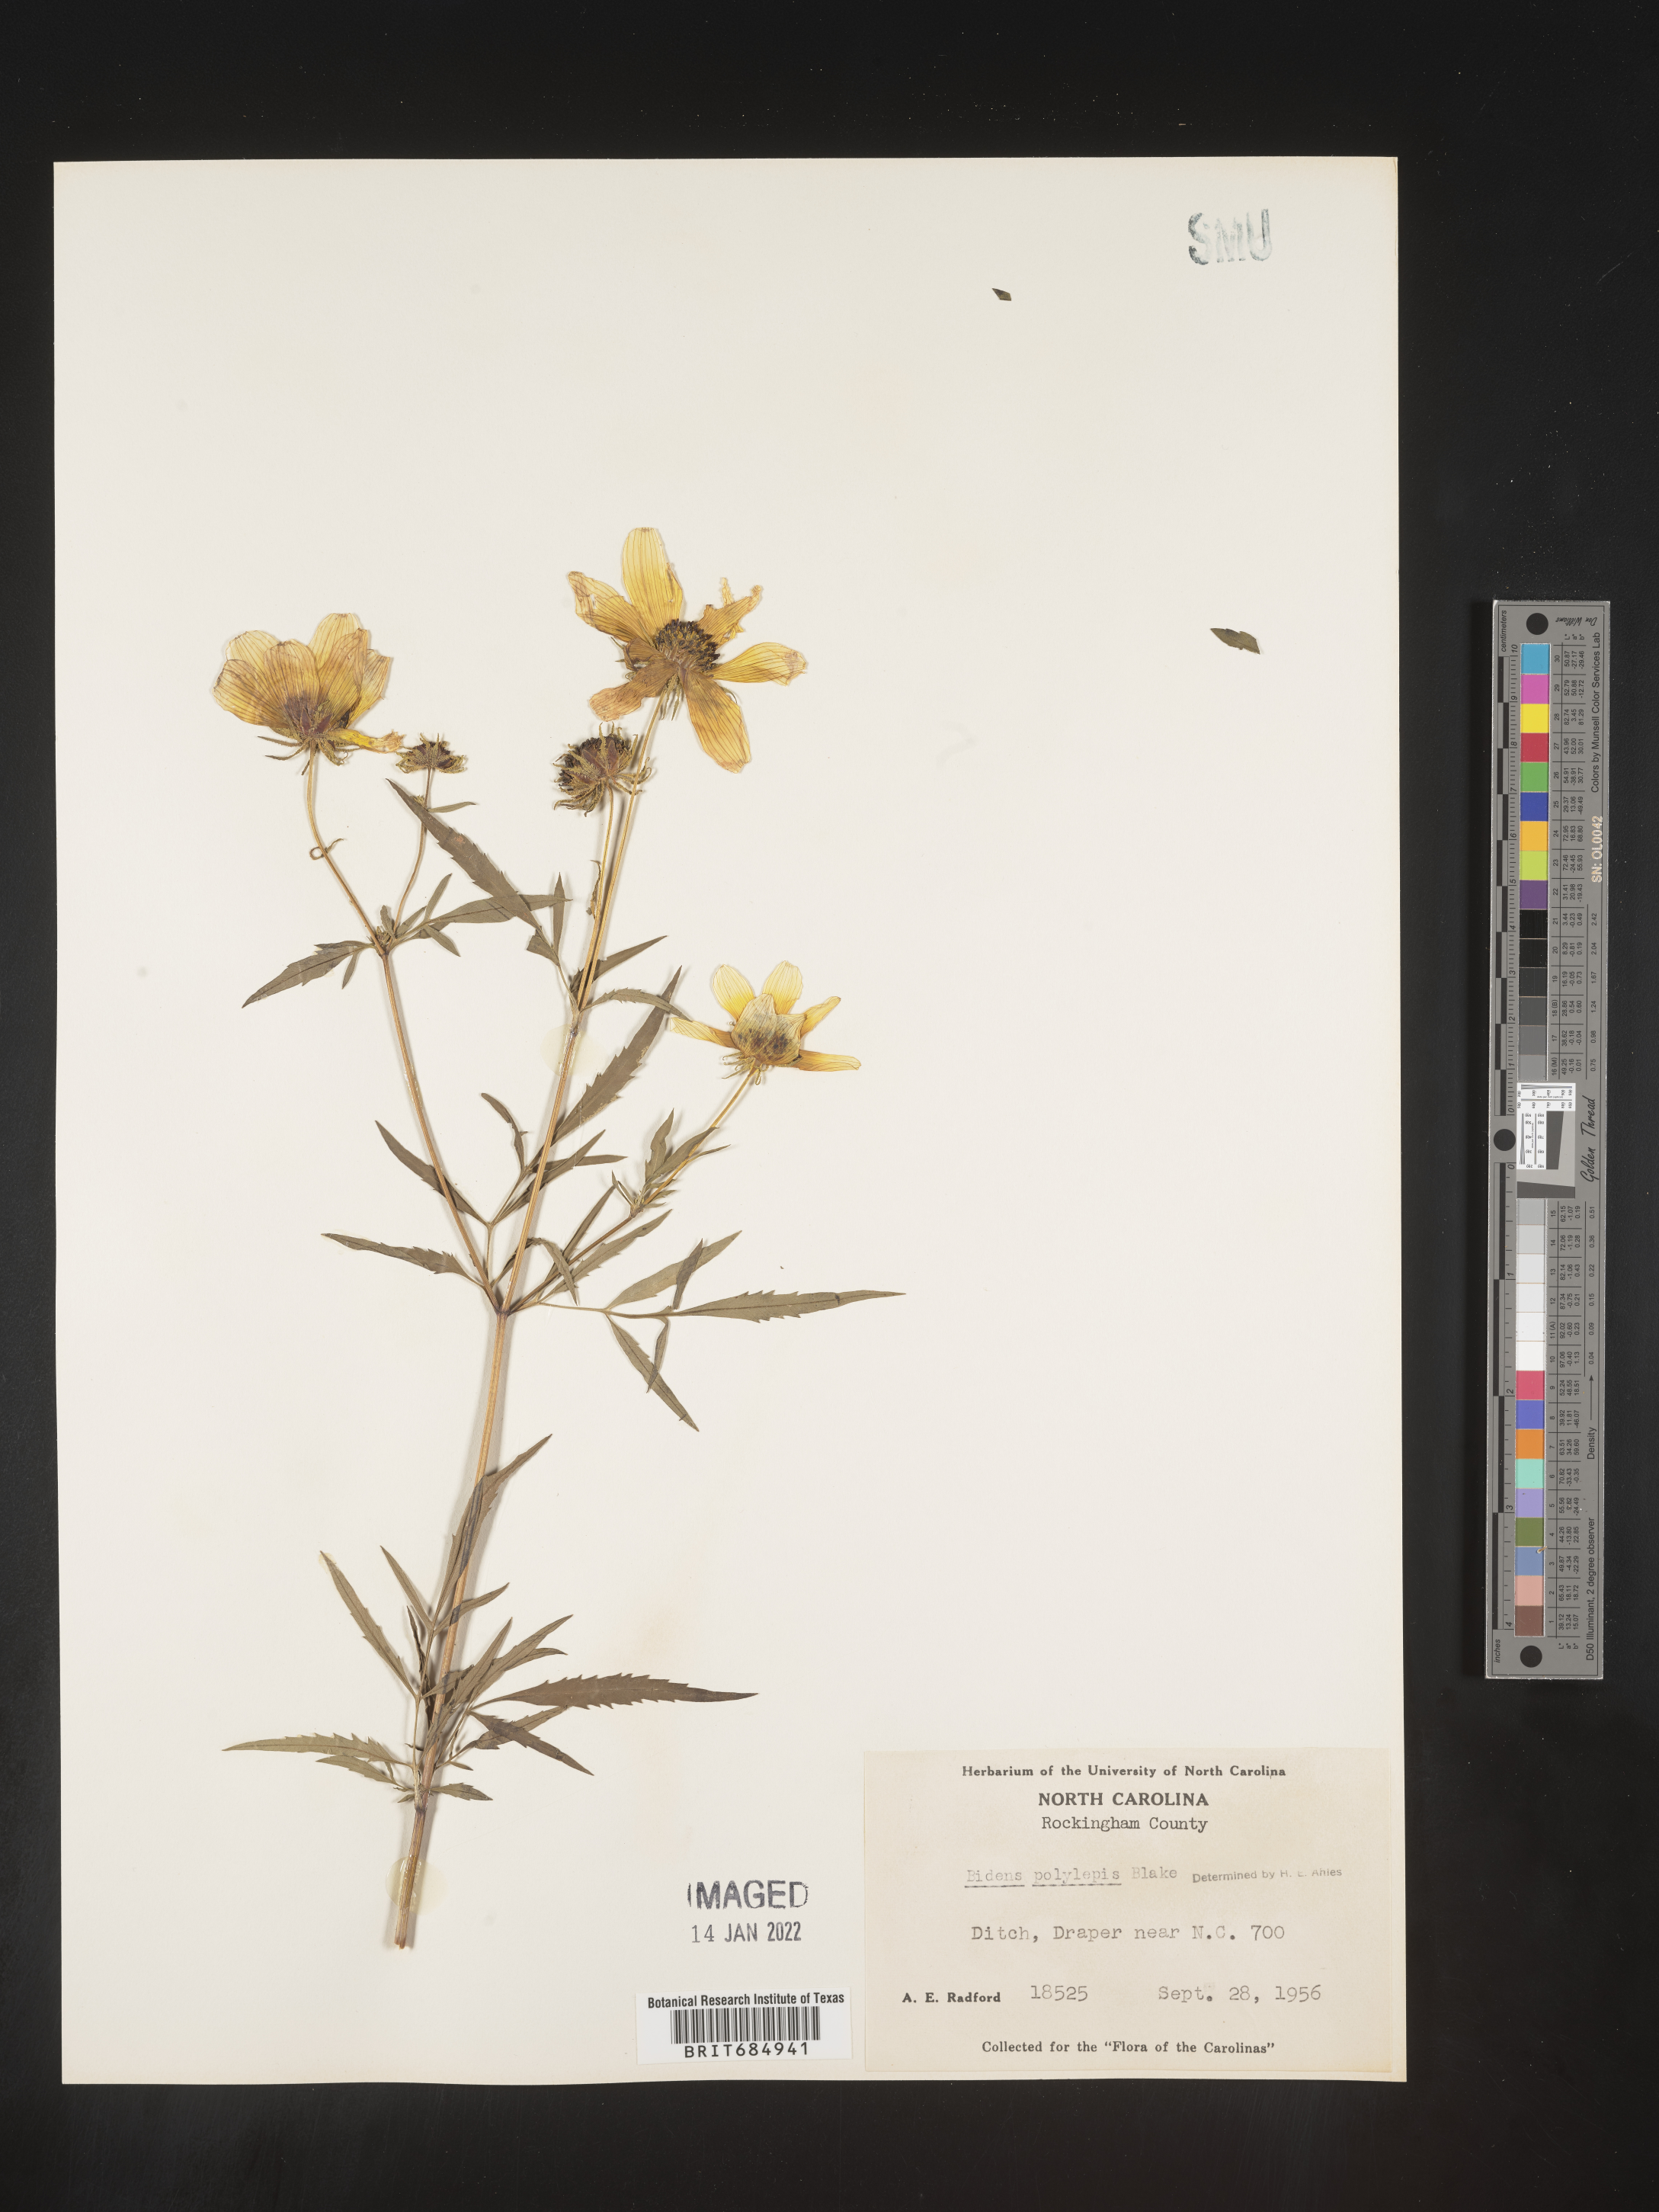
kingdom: Plantae
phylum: Tracheophyta
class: Magnoliopsida
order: Asterales
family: Asteraceae
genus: Bidens
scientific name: Bidens polylepis
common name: Awnless beggarticks
